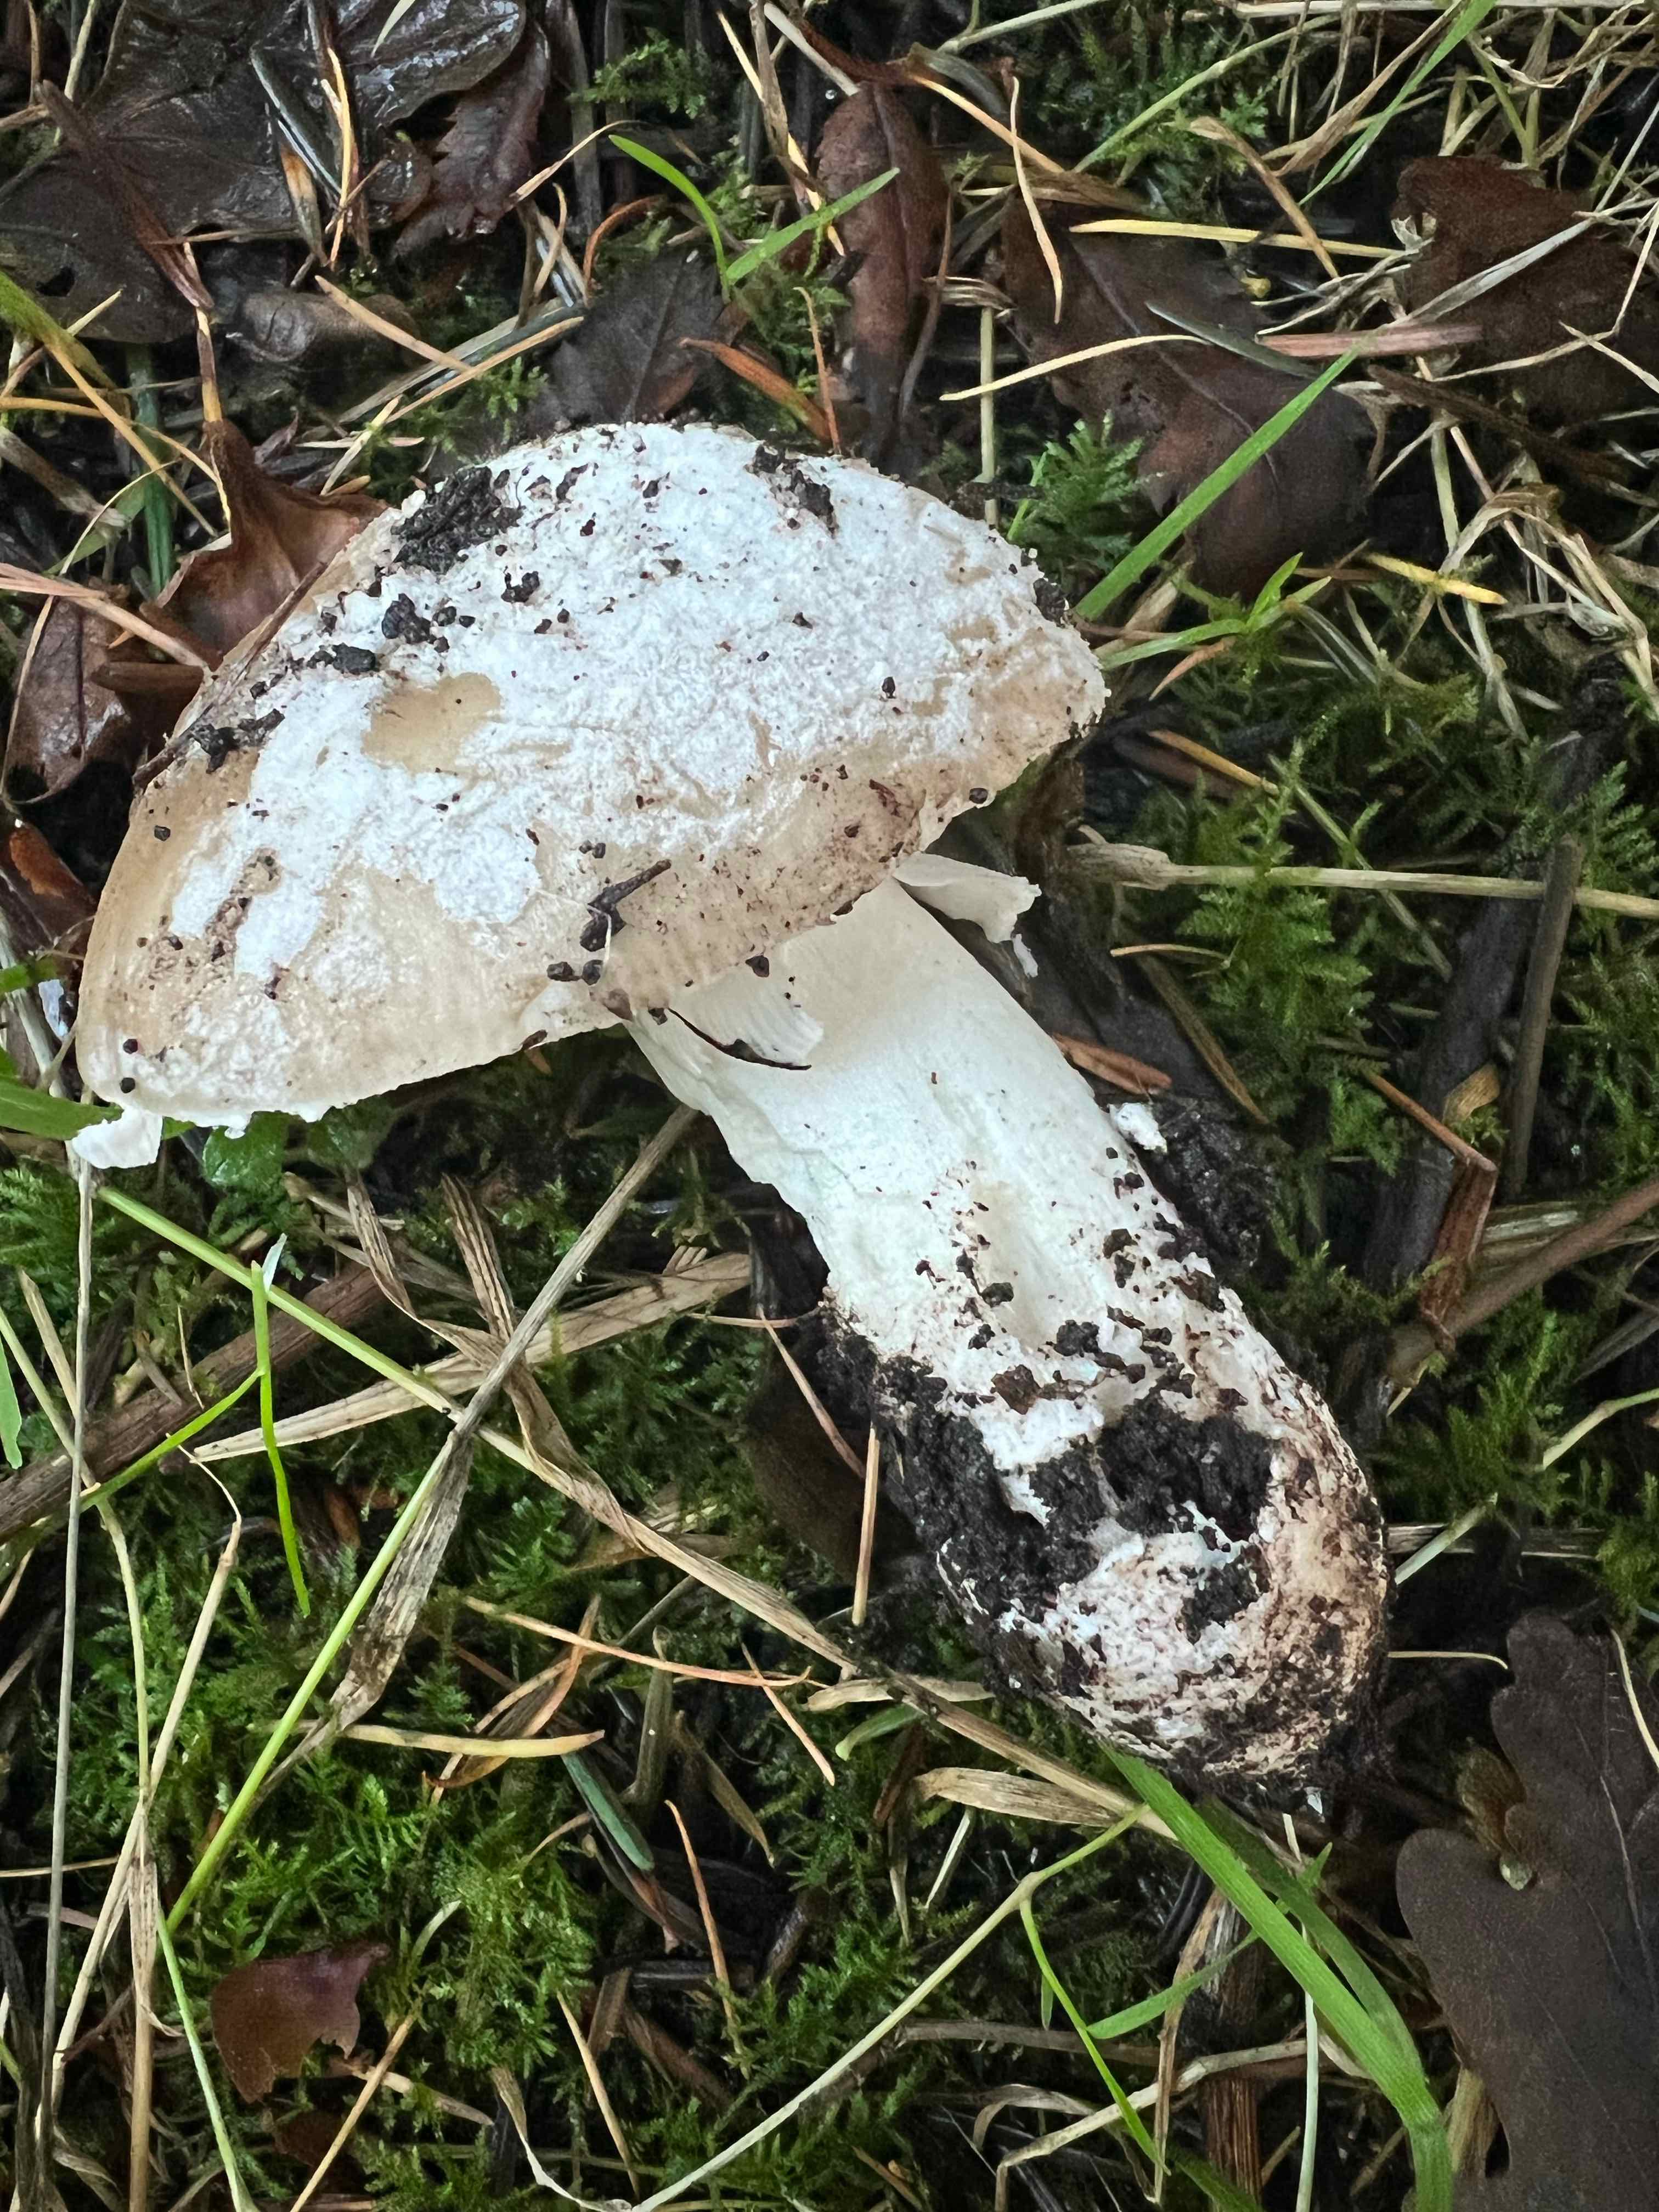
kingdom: Fungi
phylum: Basidiomycota
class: Agaricomycetes
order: Agaricales
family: Amanitaceae
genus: Amanita
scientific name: Amanita
